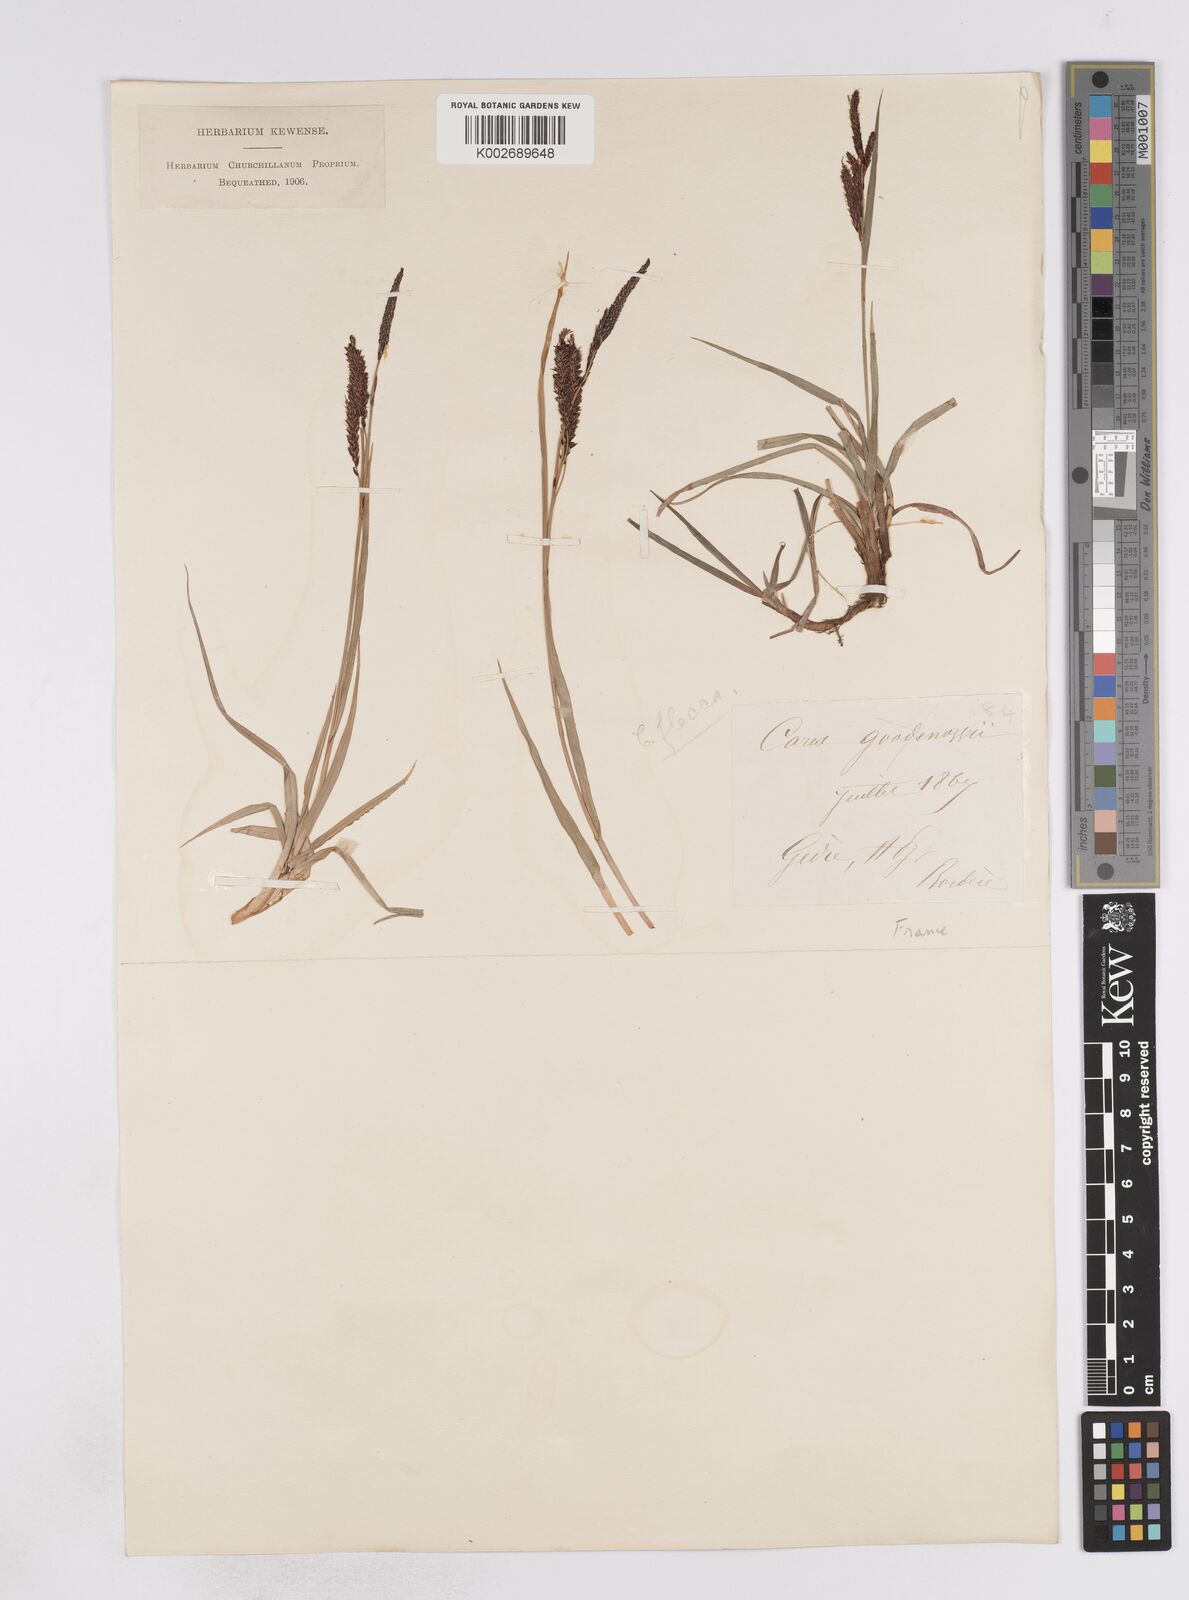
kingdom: Plantae
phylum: Tracheophyta
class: Liliopsida
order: Poales
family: Cyperaceae
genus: Carex
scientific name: Carex flacca
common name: Glaucous sedge
